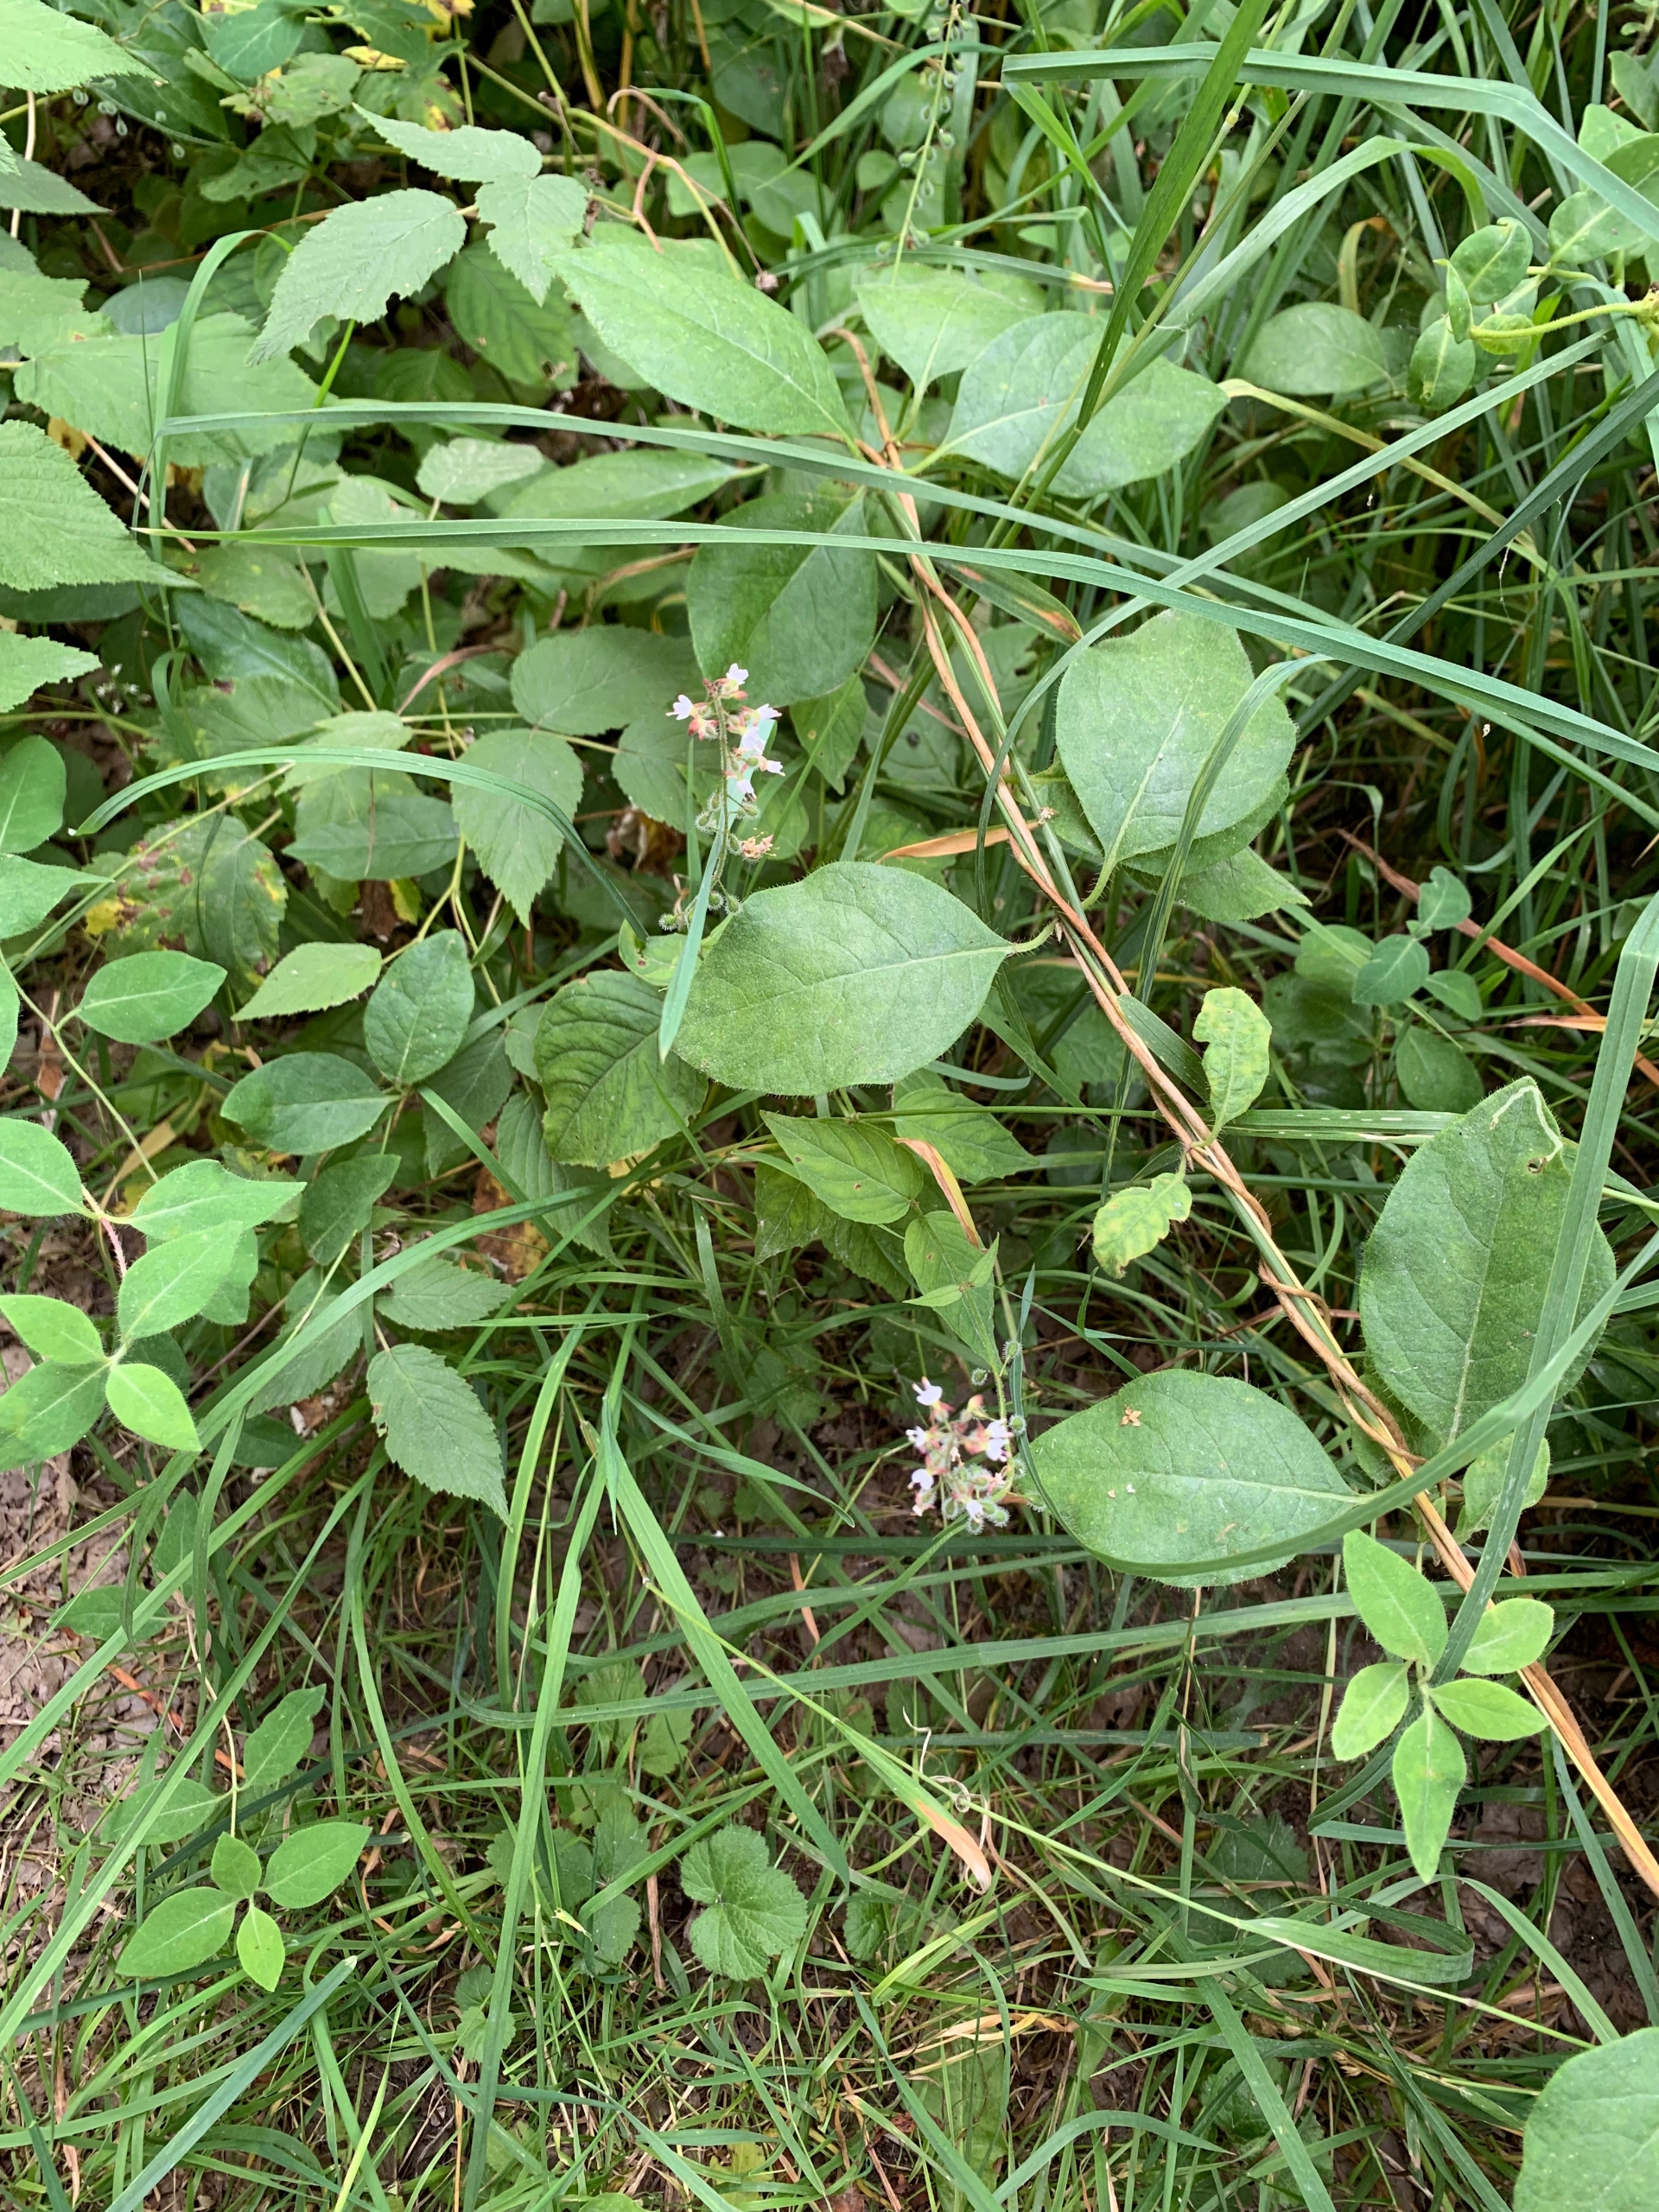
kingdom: Plantae
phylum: Tracheophyta
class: Magnoliopsida
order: Myrtales
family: Onagraceae
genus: Circaea
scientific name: Circaea lutetiana
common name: Dunet steffensurt
